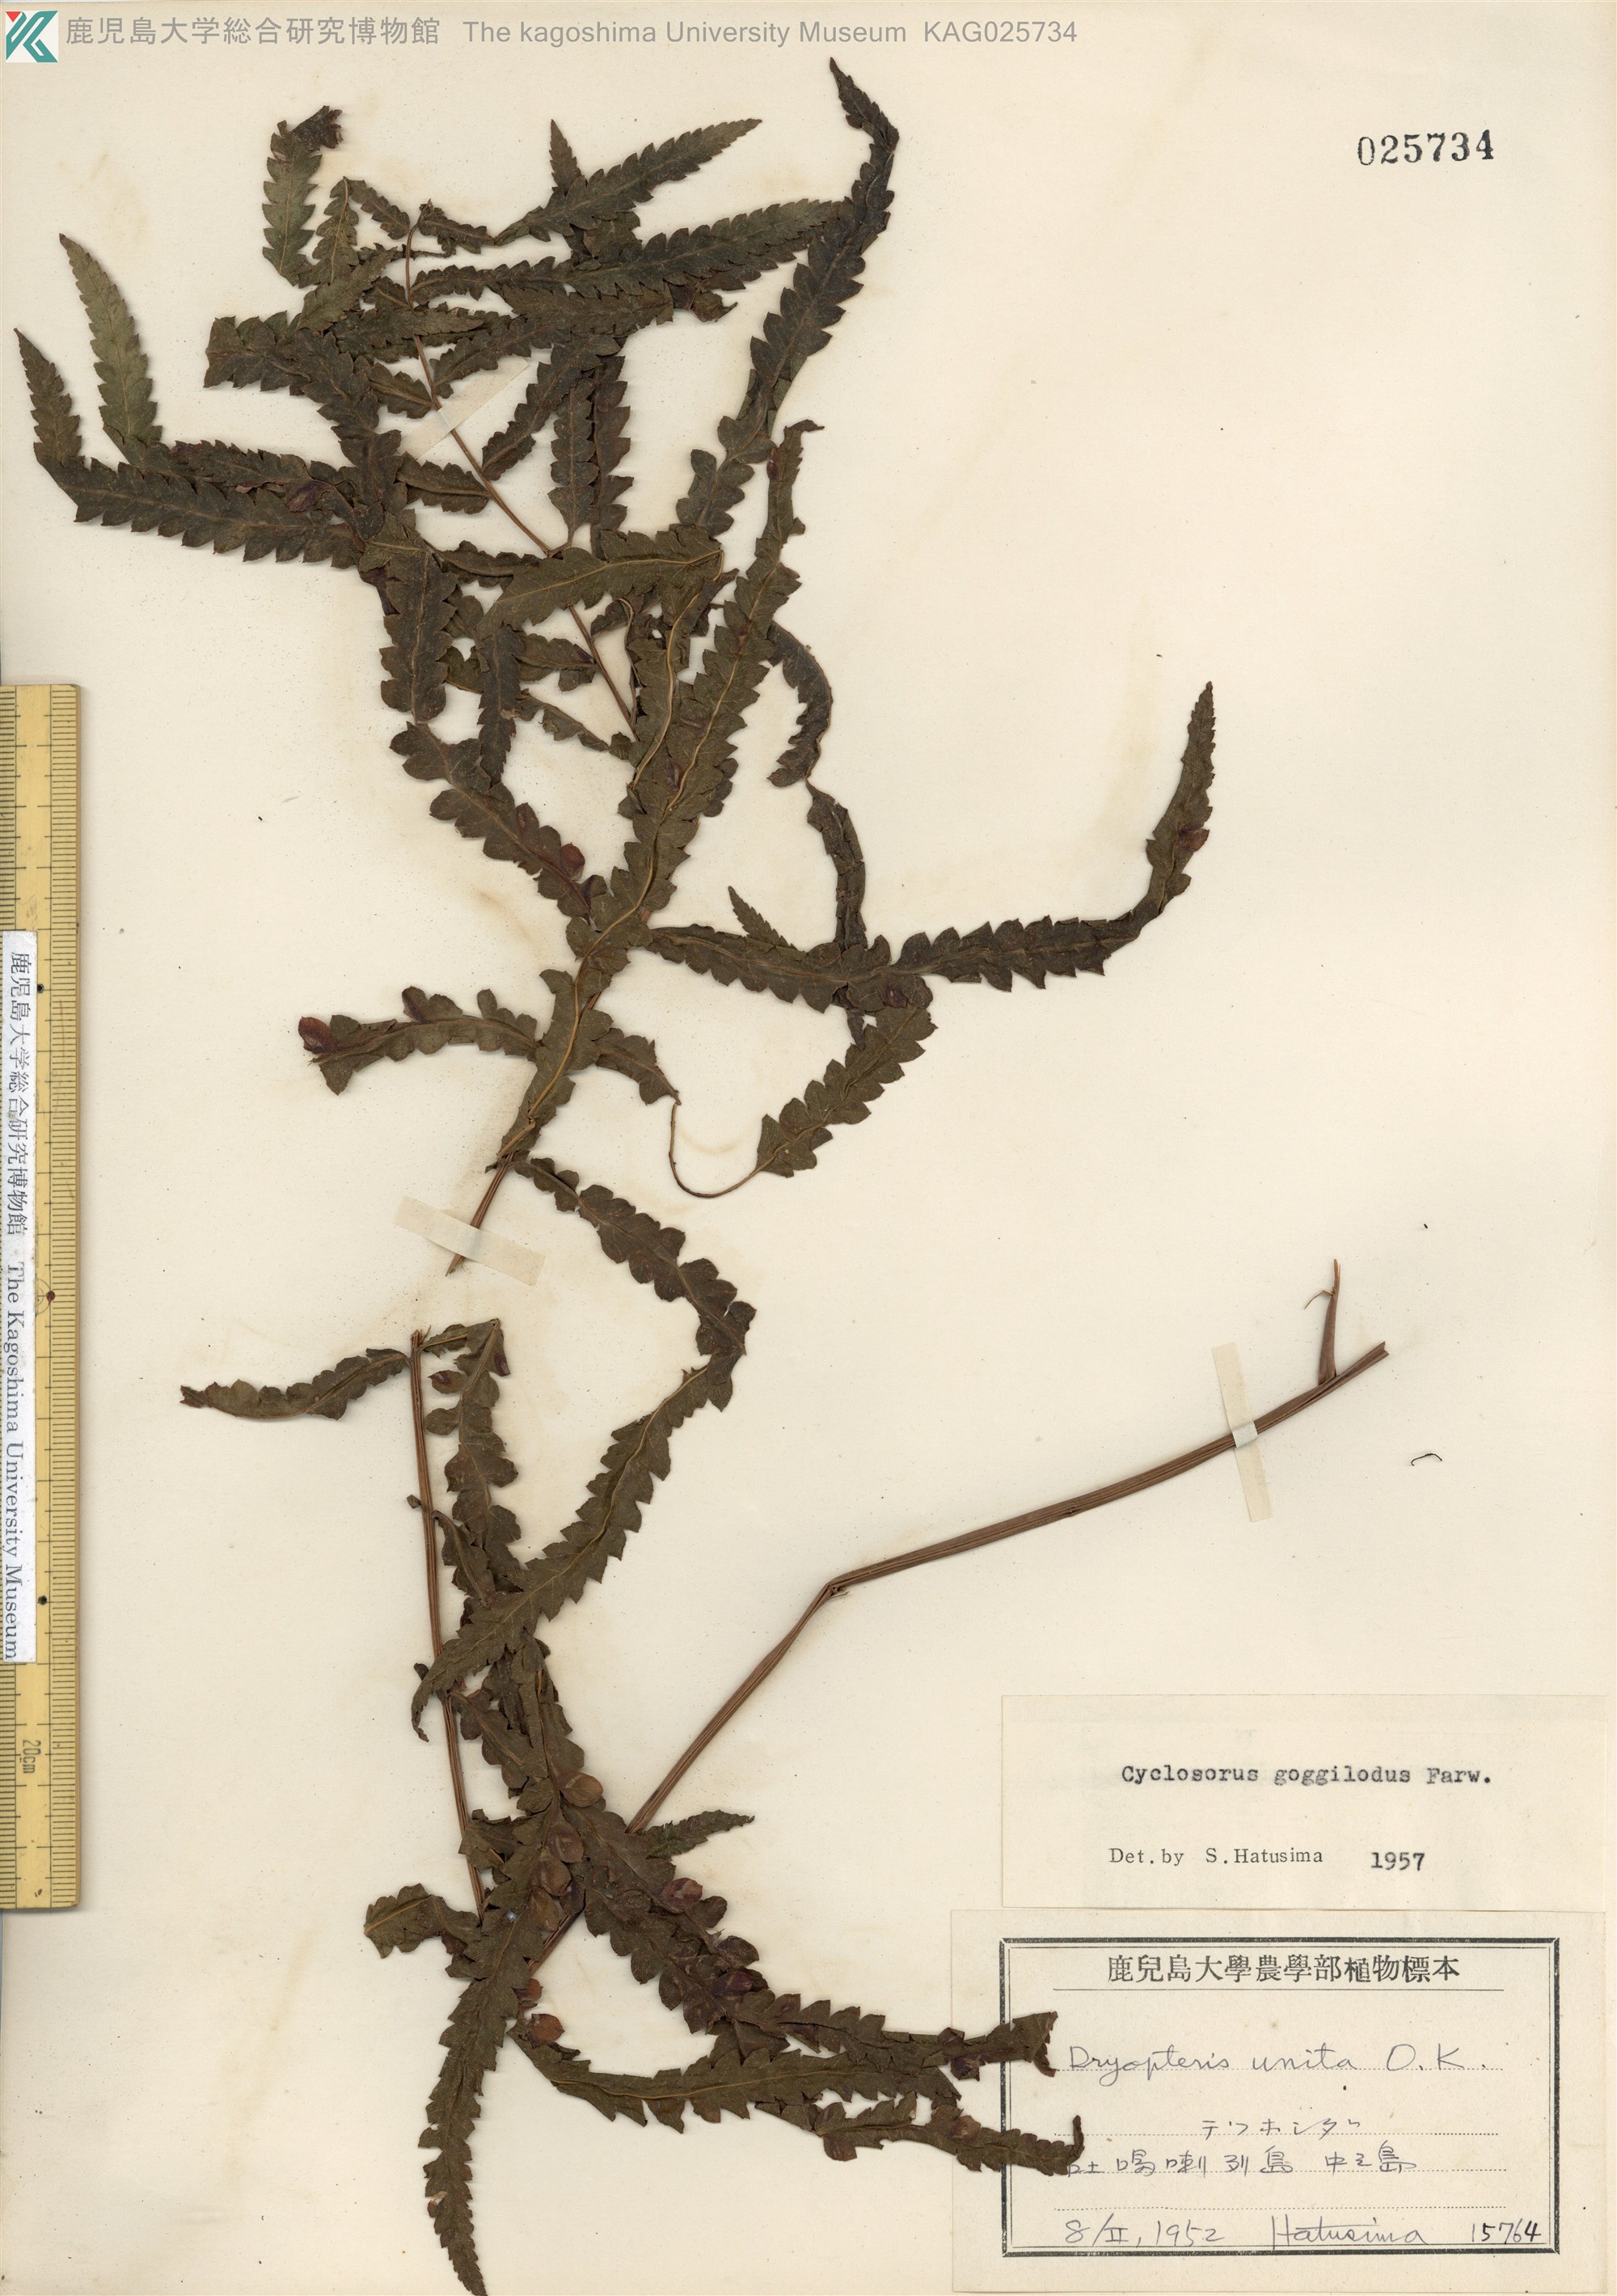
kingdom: Plantae
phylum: Tracheophyta
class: Polypodiopsida
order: Polypodiales
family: Thelypteridaceae
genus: Cyclosorus
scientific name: Cyclosorus interruptus
